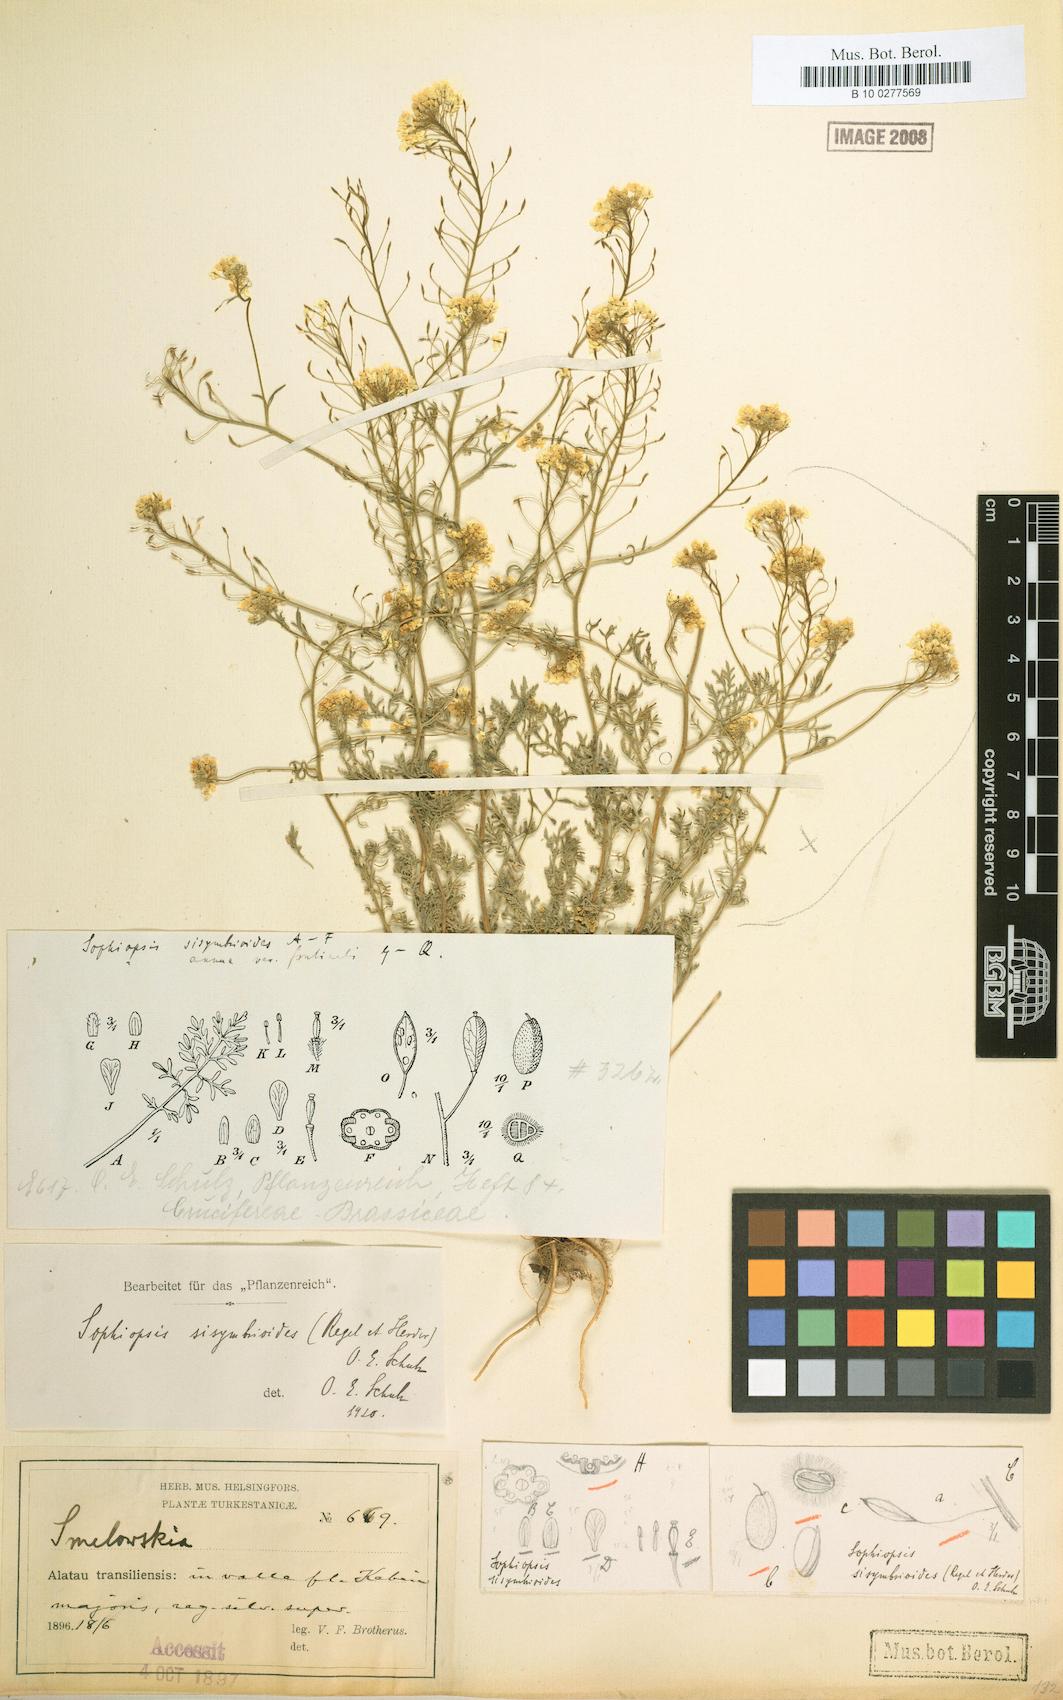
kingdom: Plantae
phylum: Tracheophyta
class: Magnoliopsida
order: Brassicales
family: Brassicaceae
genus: Smelowskia
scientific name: Smelowskia sisymbrioides
